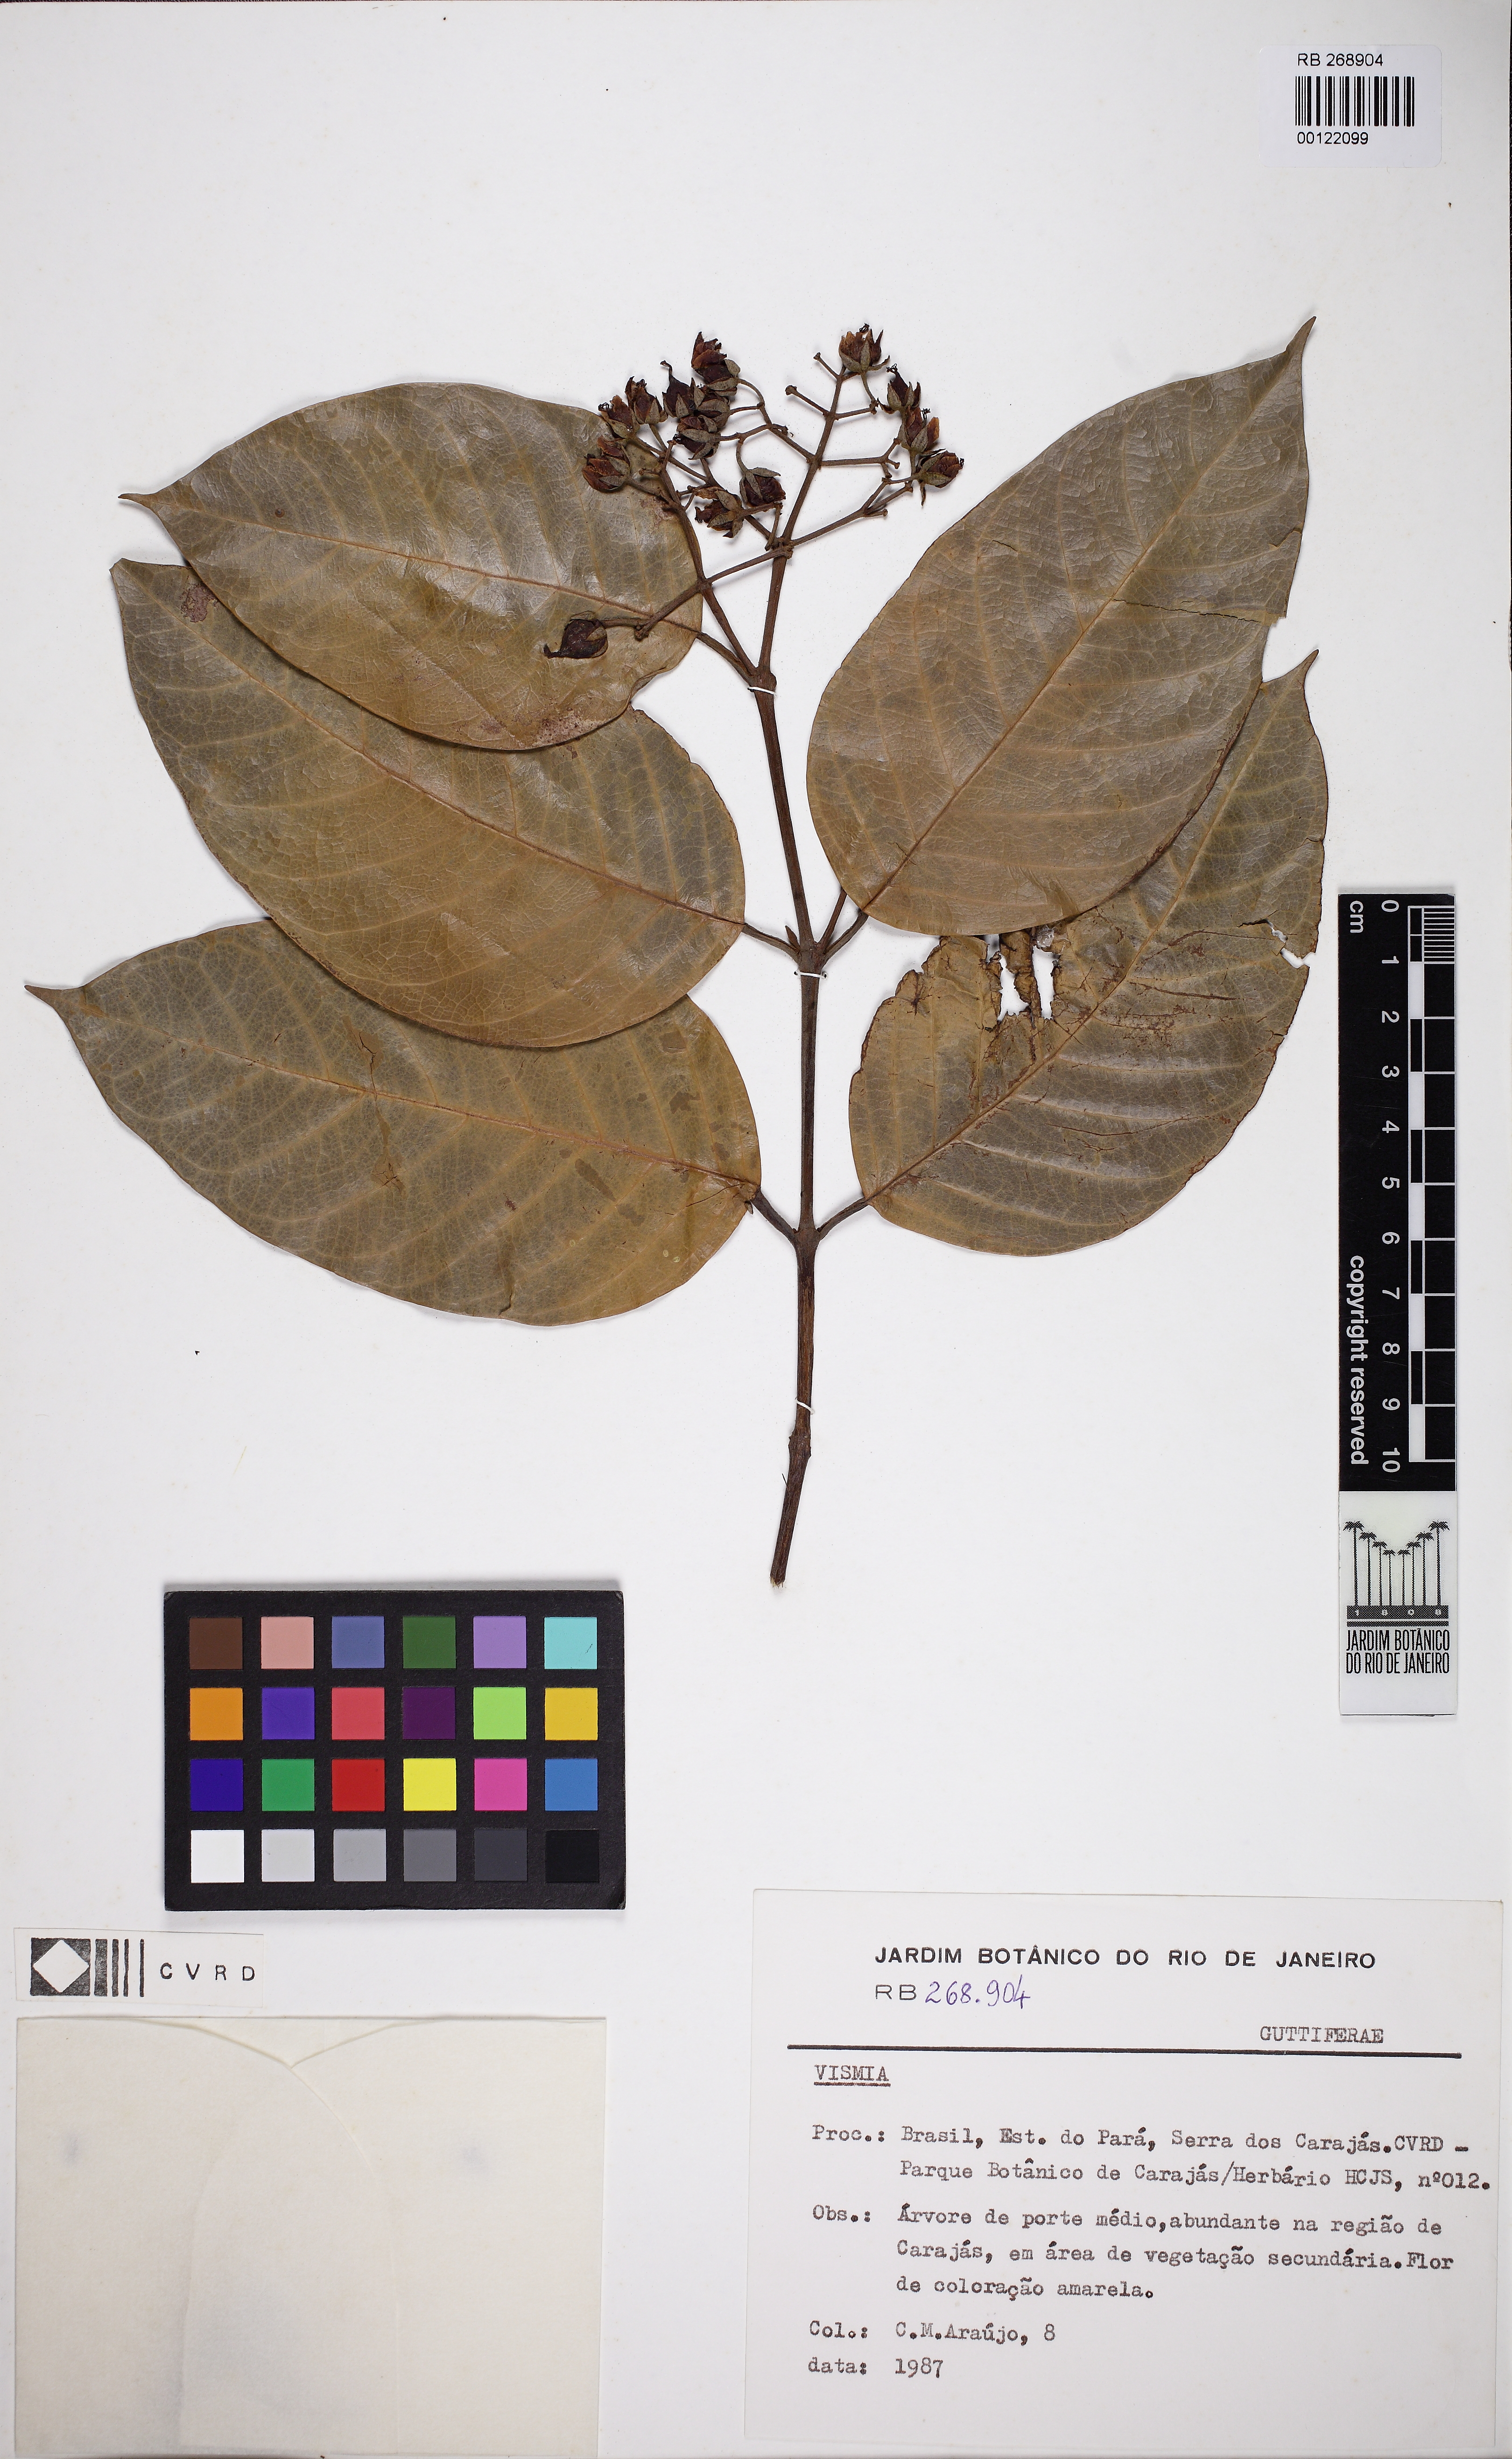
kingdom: Plantae
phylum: Tracheophyta
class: Magnoliopsida
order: Malpighiales
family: Hypericaceae
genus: Vismia
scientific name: Vismia gracilis
